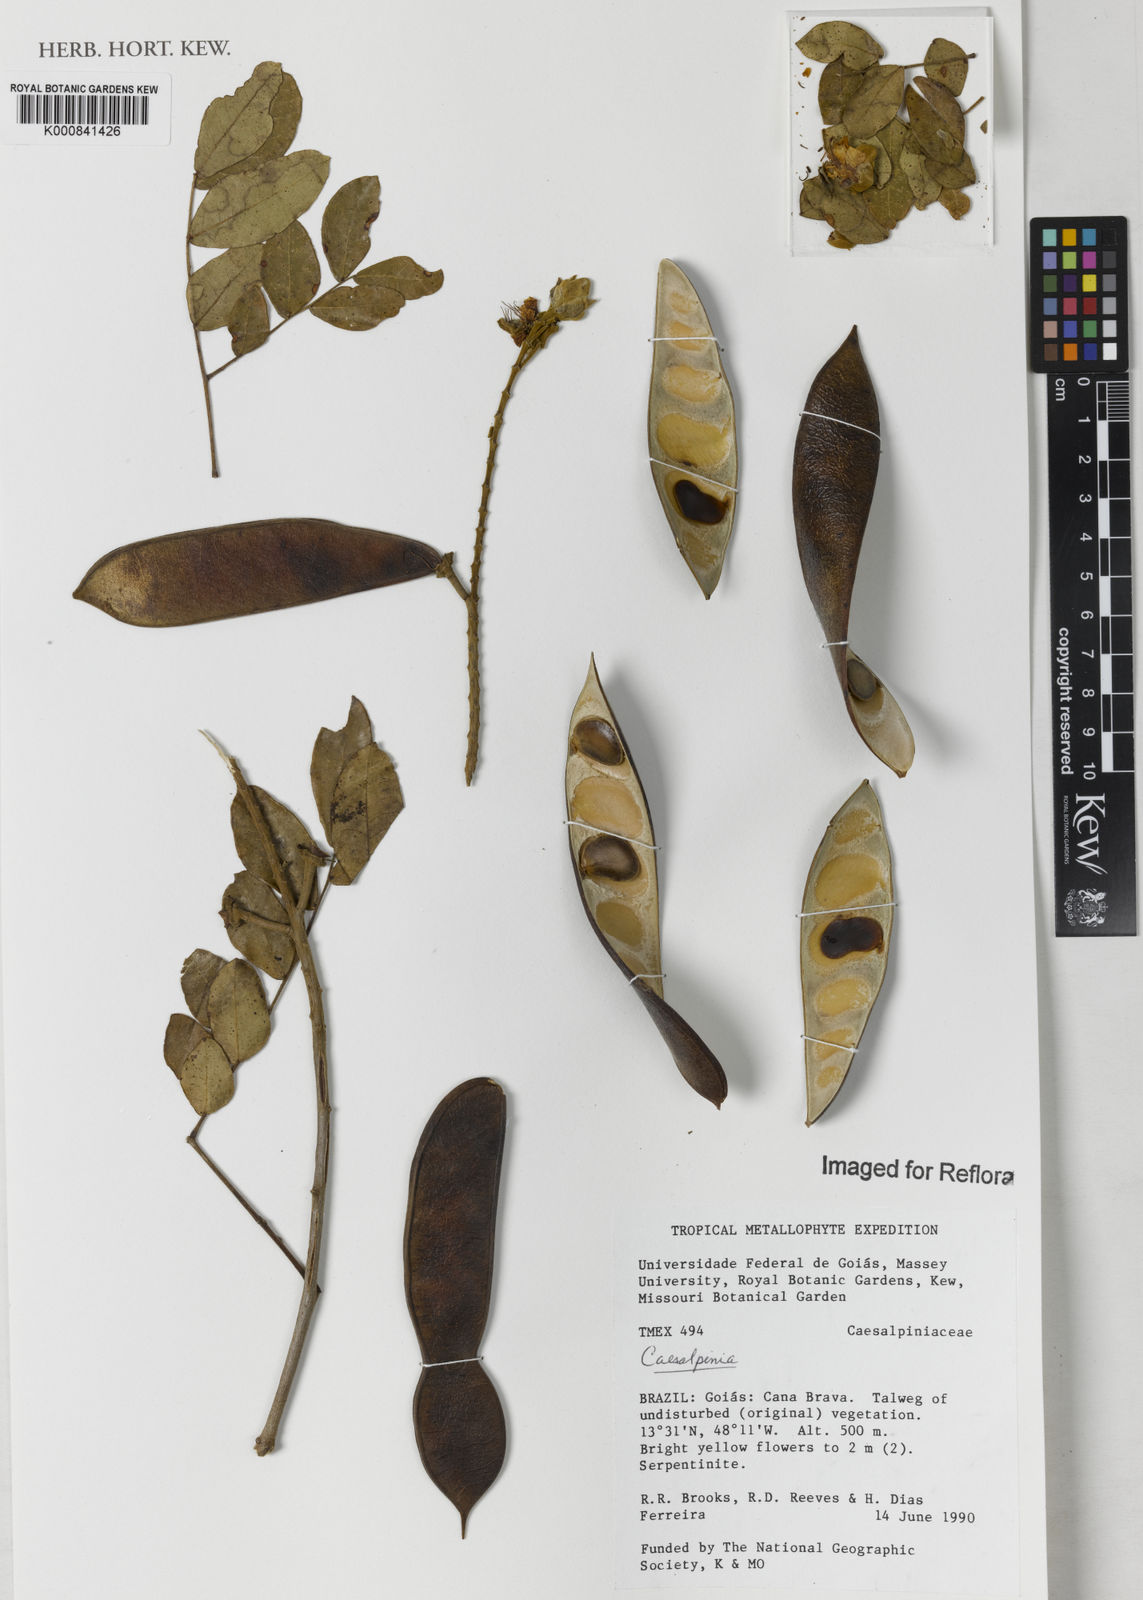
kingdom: Plantae
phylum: Tracheophyta
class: Magnoliopsida
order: Fabales
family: Fabaceae
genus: Caesalpinia
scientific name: Caesalpinia
